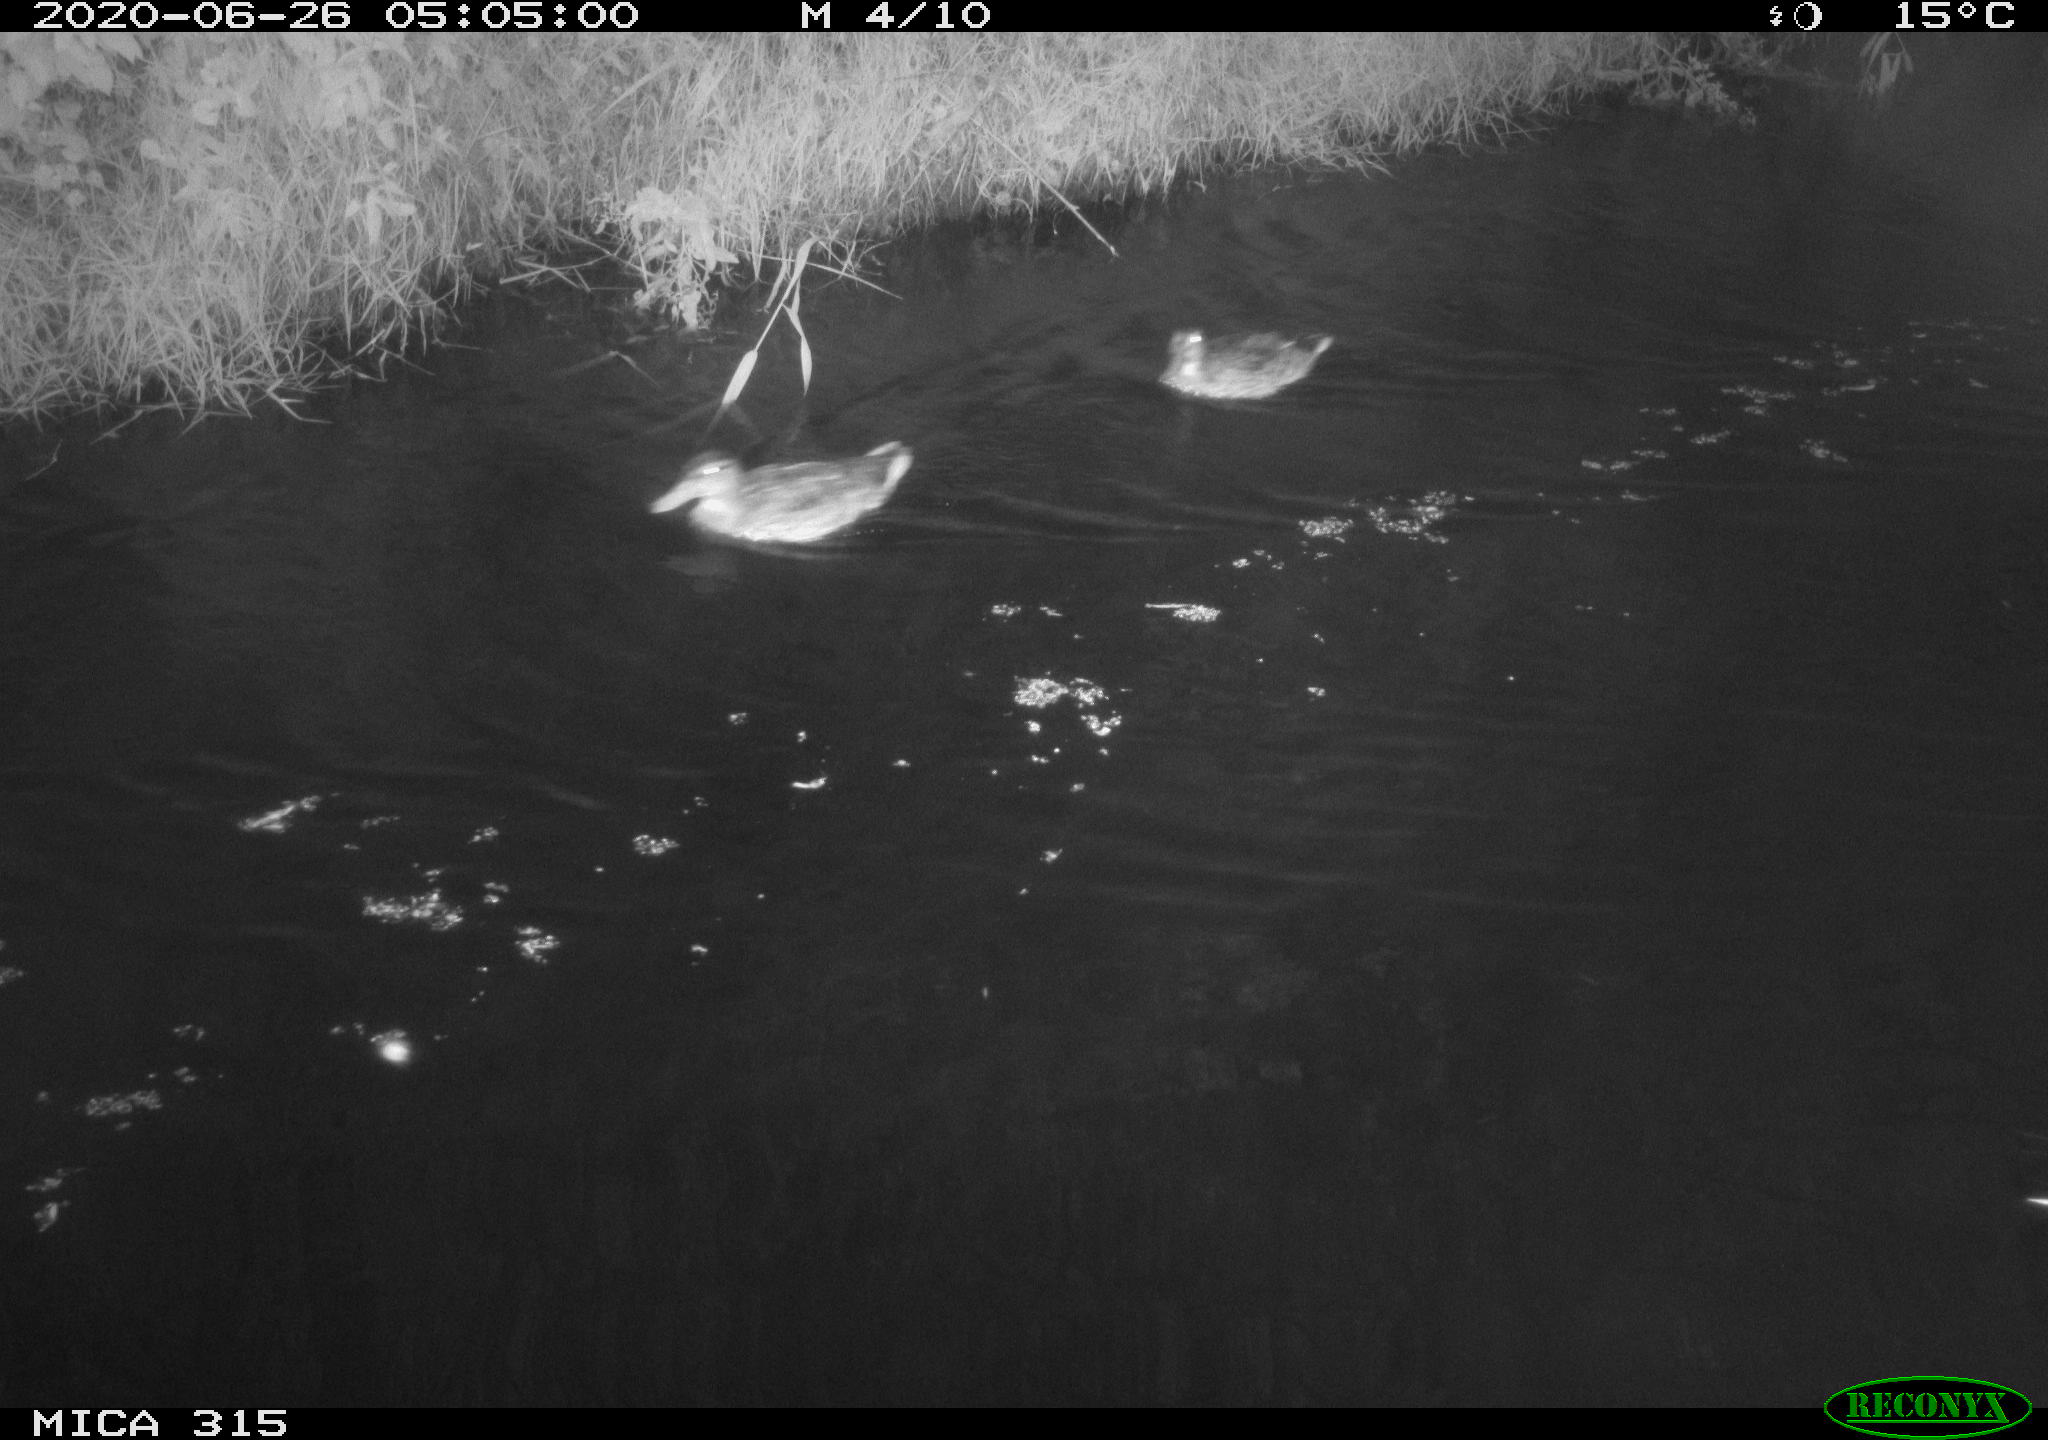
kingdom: Animalia
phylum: Chordata
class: Aves
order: Anseriformes
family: Anatidae
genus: Anas
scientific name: Anas platyrhynchos
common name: Mallard
